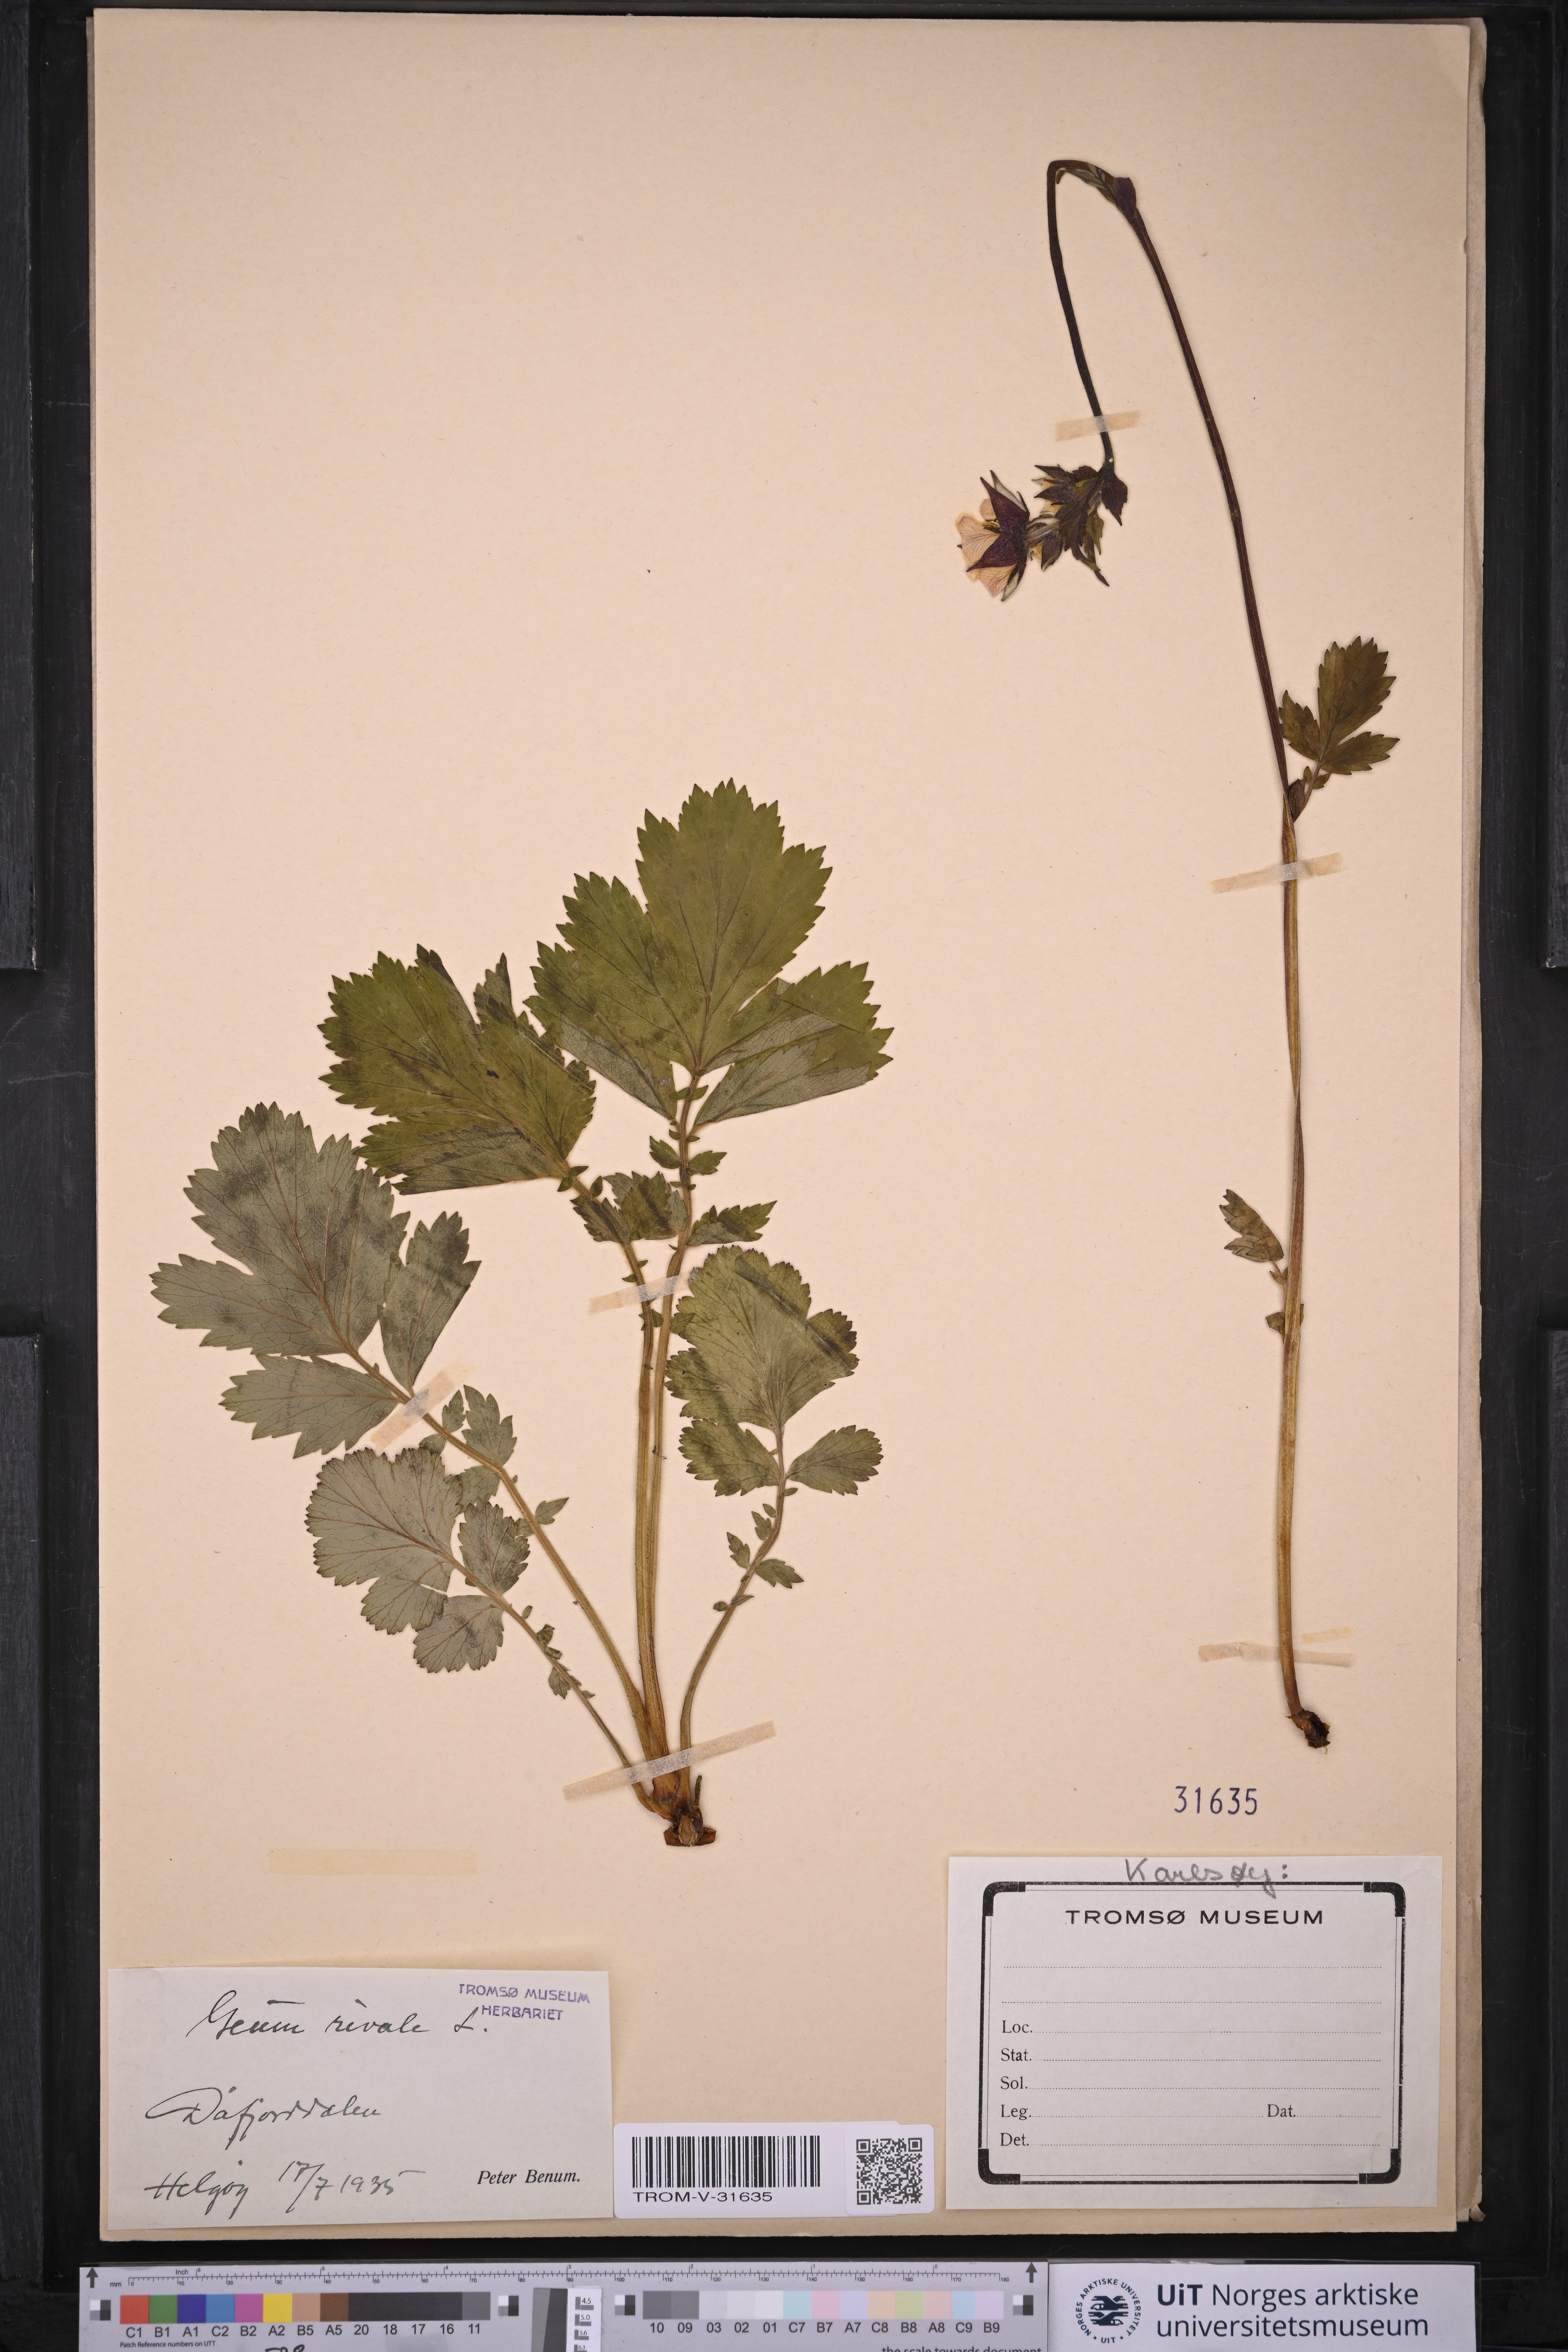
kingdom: Plantae
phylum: Tracheophyta
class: Magnoliopsida
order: Rosales
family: Rosaceae
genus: Geum
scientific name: Geum rivale
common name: Water avens
